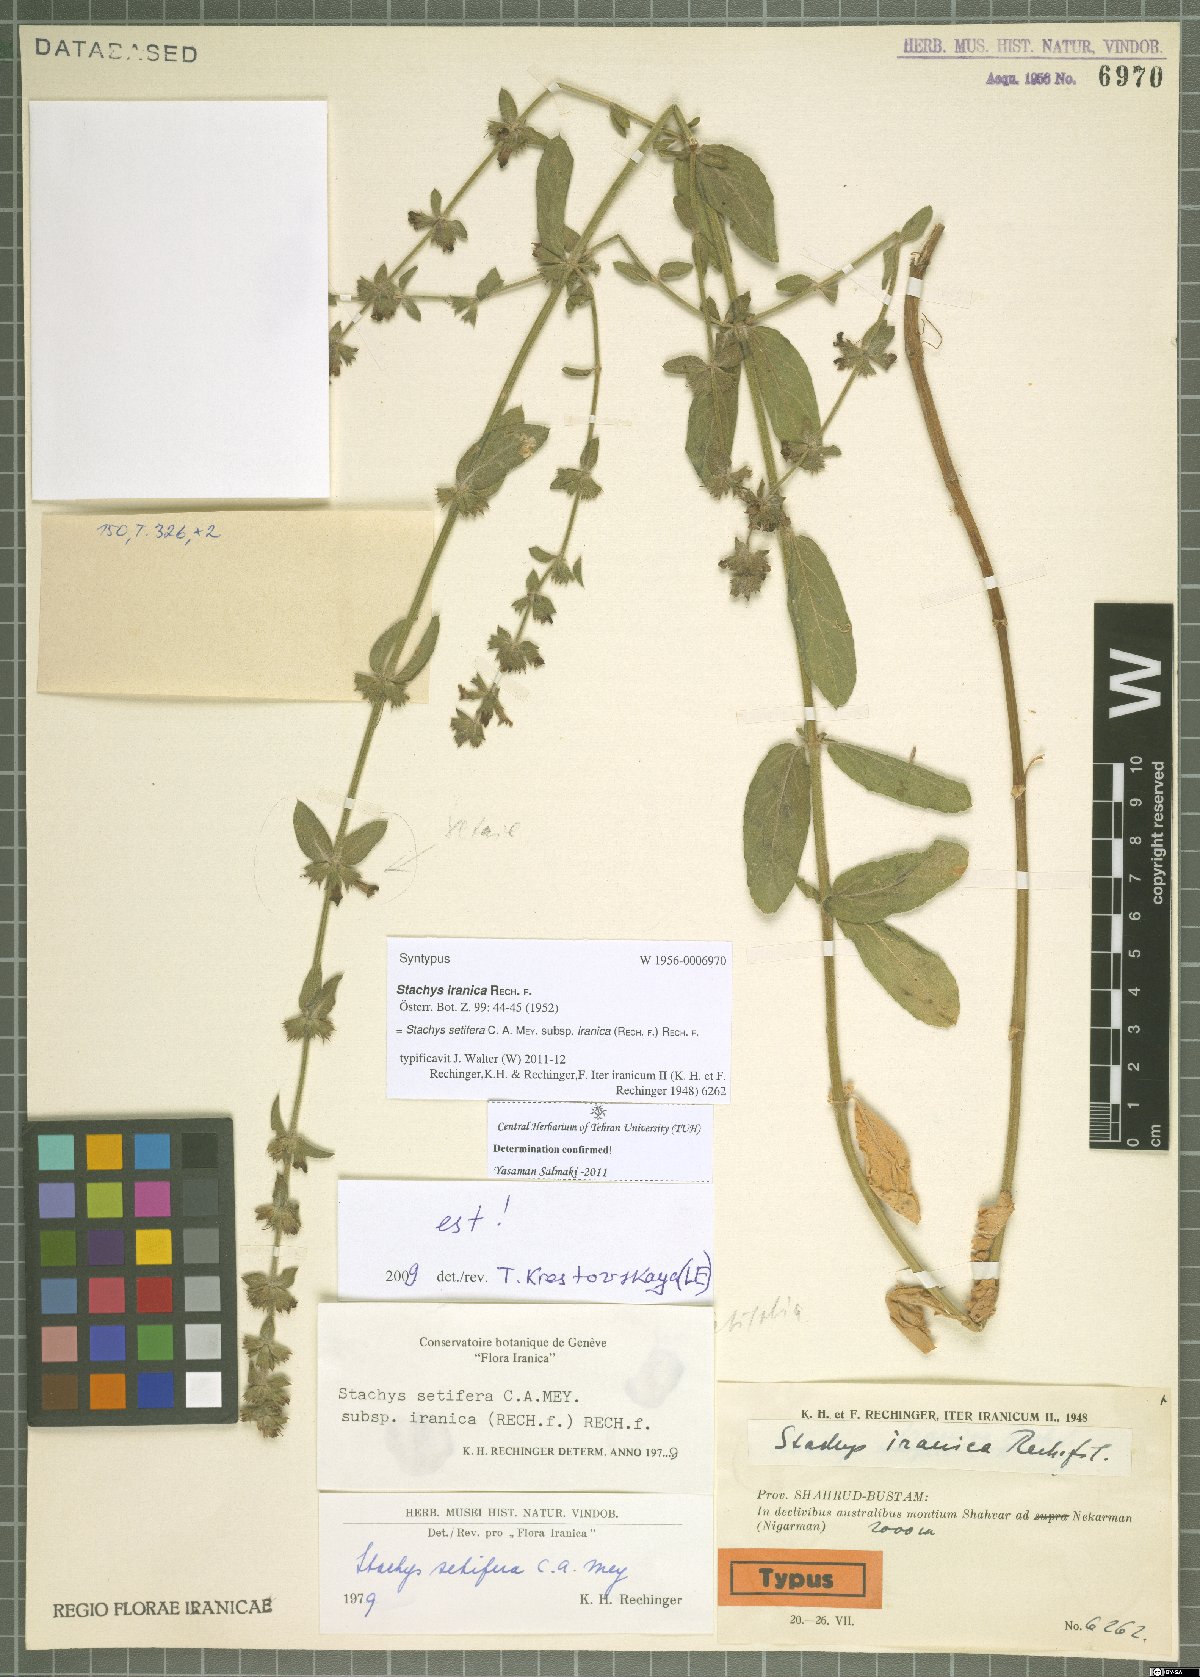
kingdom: Plantae
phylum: Tracheophyta
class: Magnoliopsida
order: Lamiales
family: Lamiaceae
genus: Stachys
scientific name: Stachys setifera
